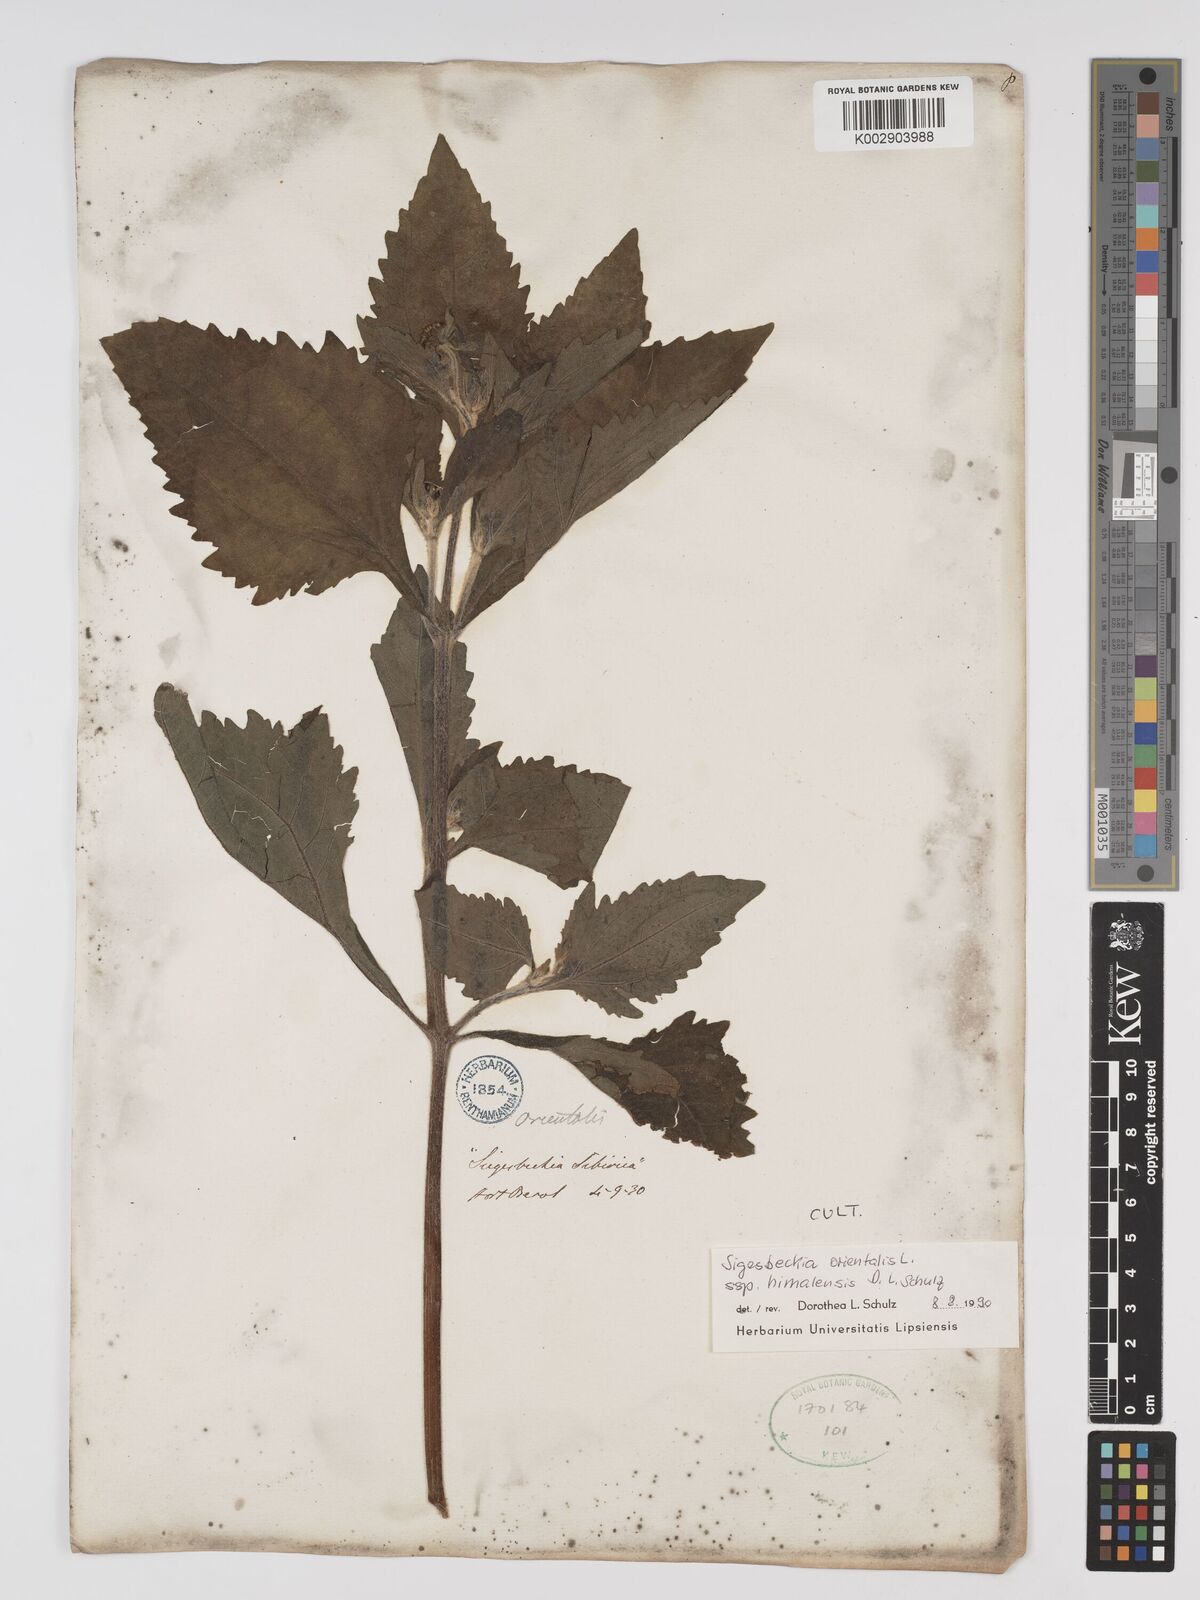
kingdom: Plantae
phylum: Tracheophyta
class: Magnoliopsida
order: Asterales
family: Asteraceae
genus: Sigesbeckia
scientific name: Sigesbeckia orientalis
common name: Eastern st paul's-wort
